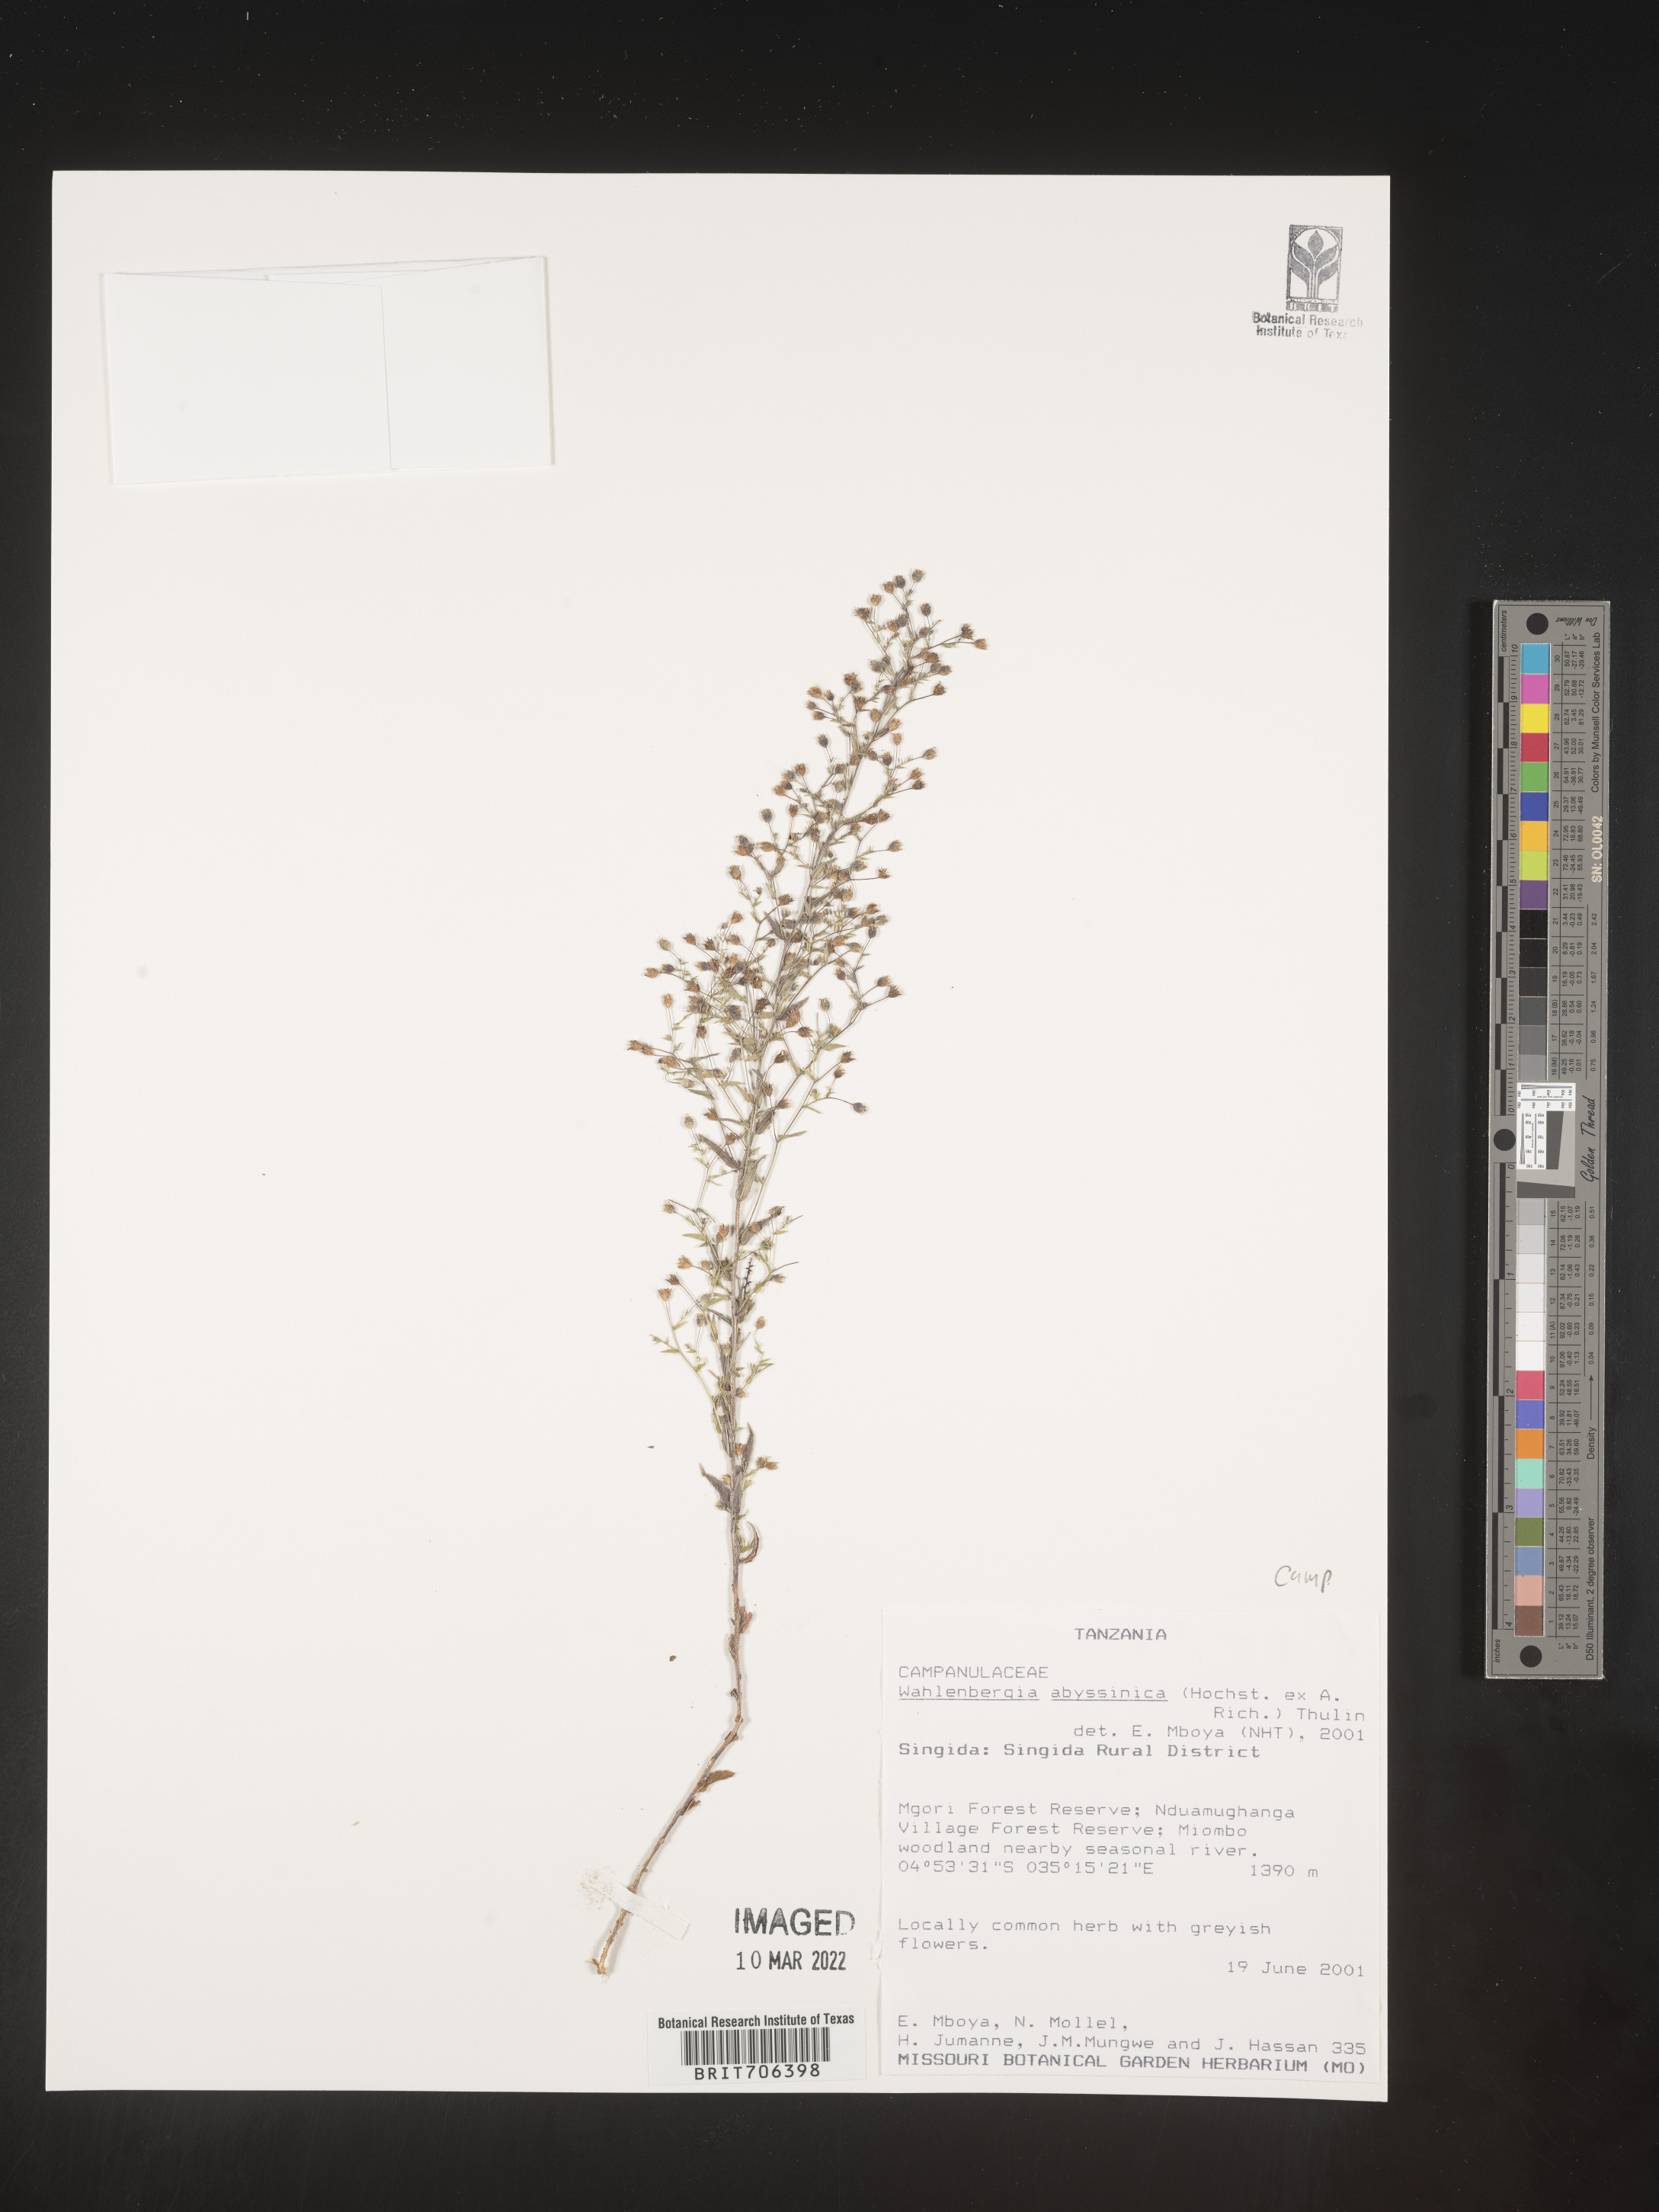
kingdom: Plantae
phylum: Tracheophyta
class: Magnoliopsida
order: Asterales
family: Campanulaceae
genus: Wahlenbergia
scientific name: Wahlenbergia
